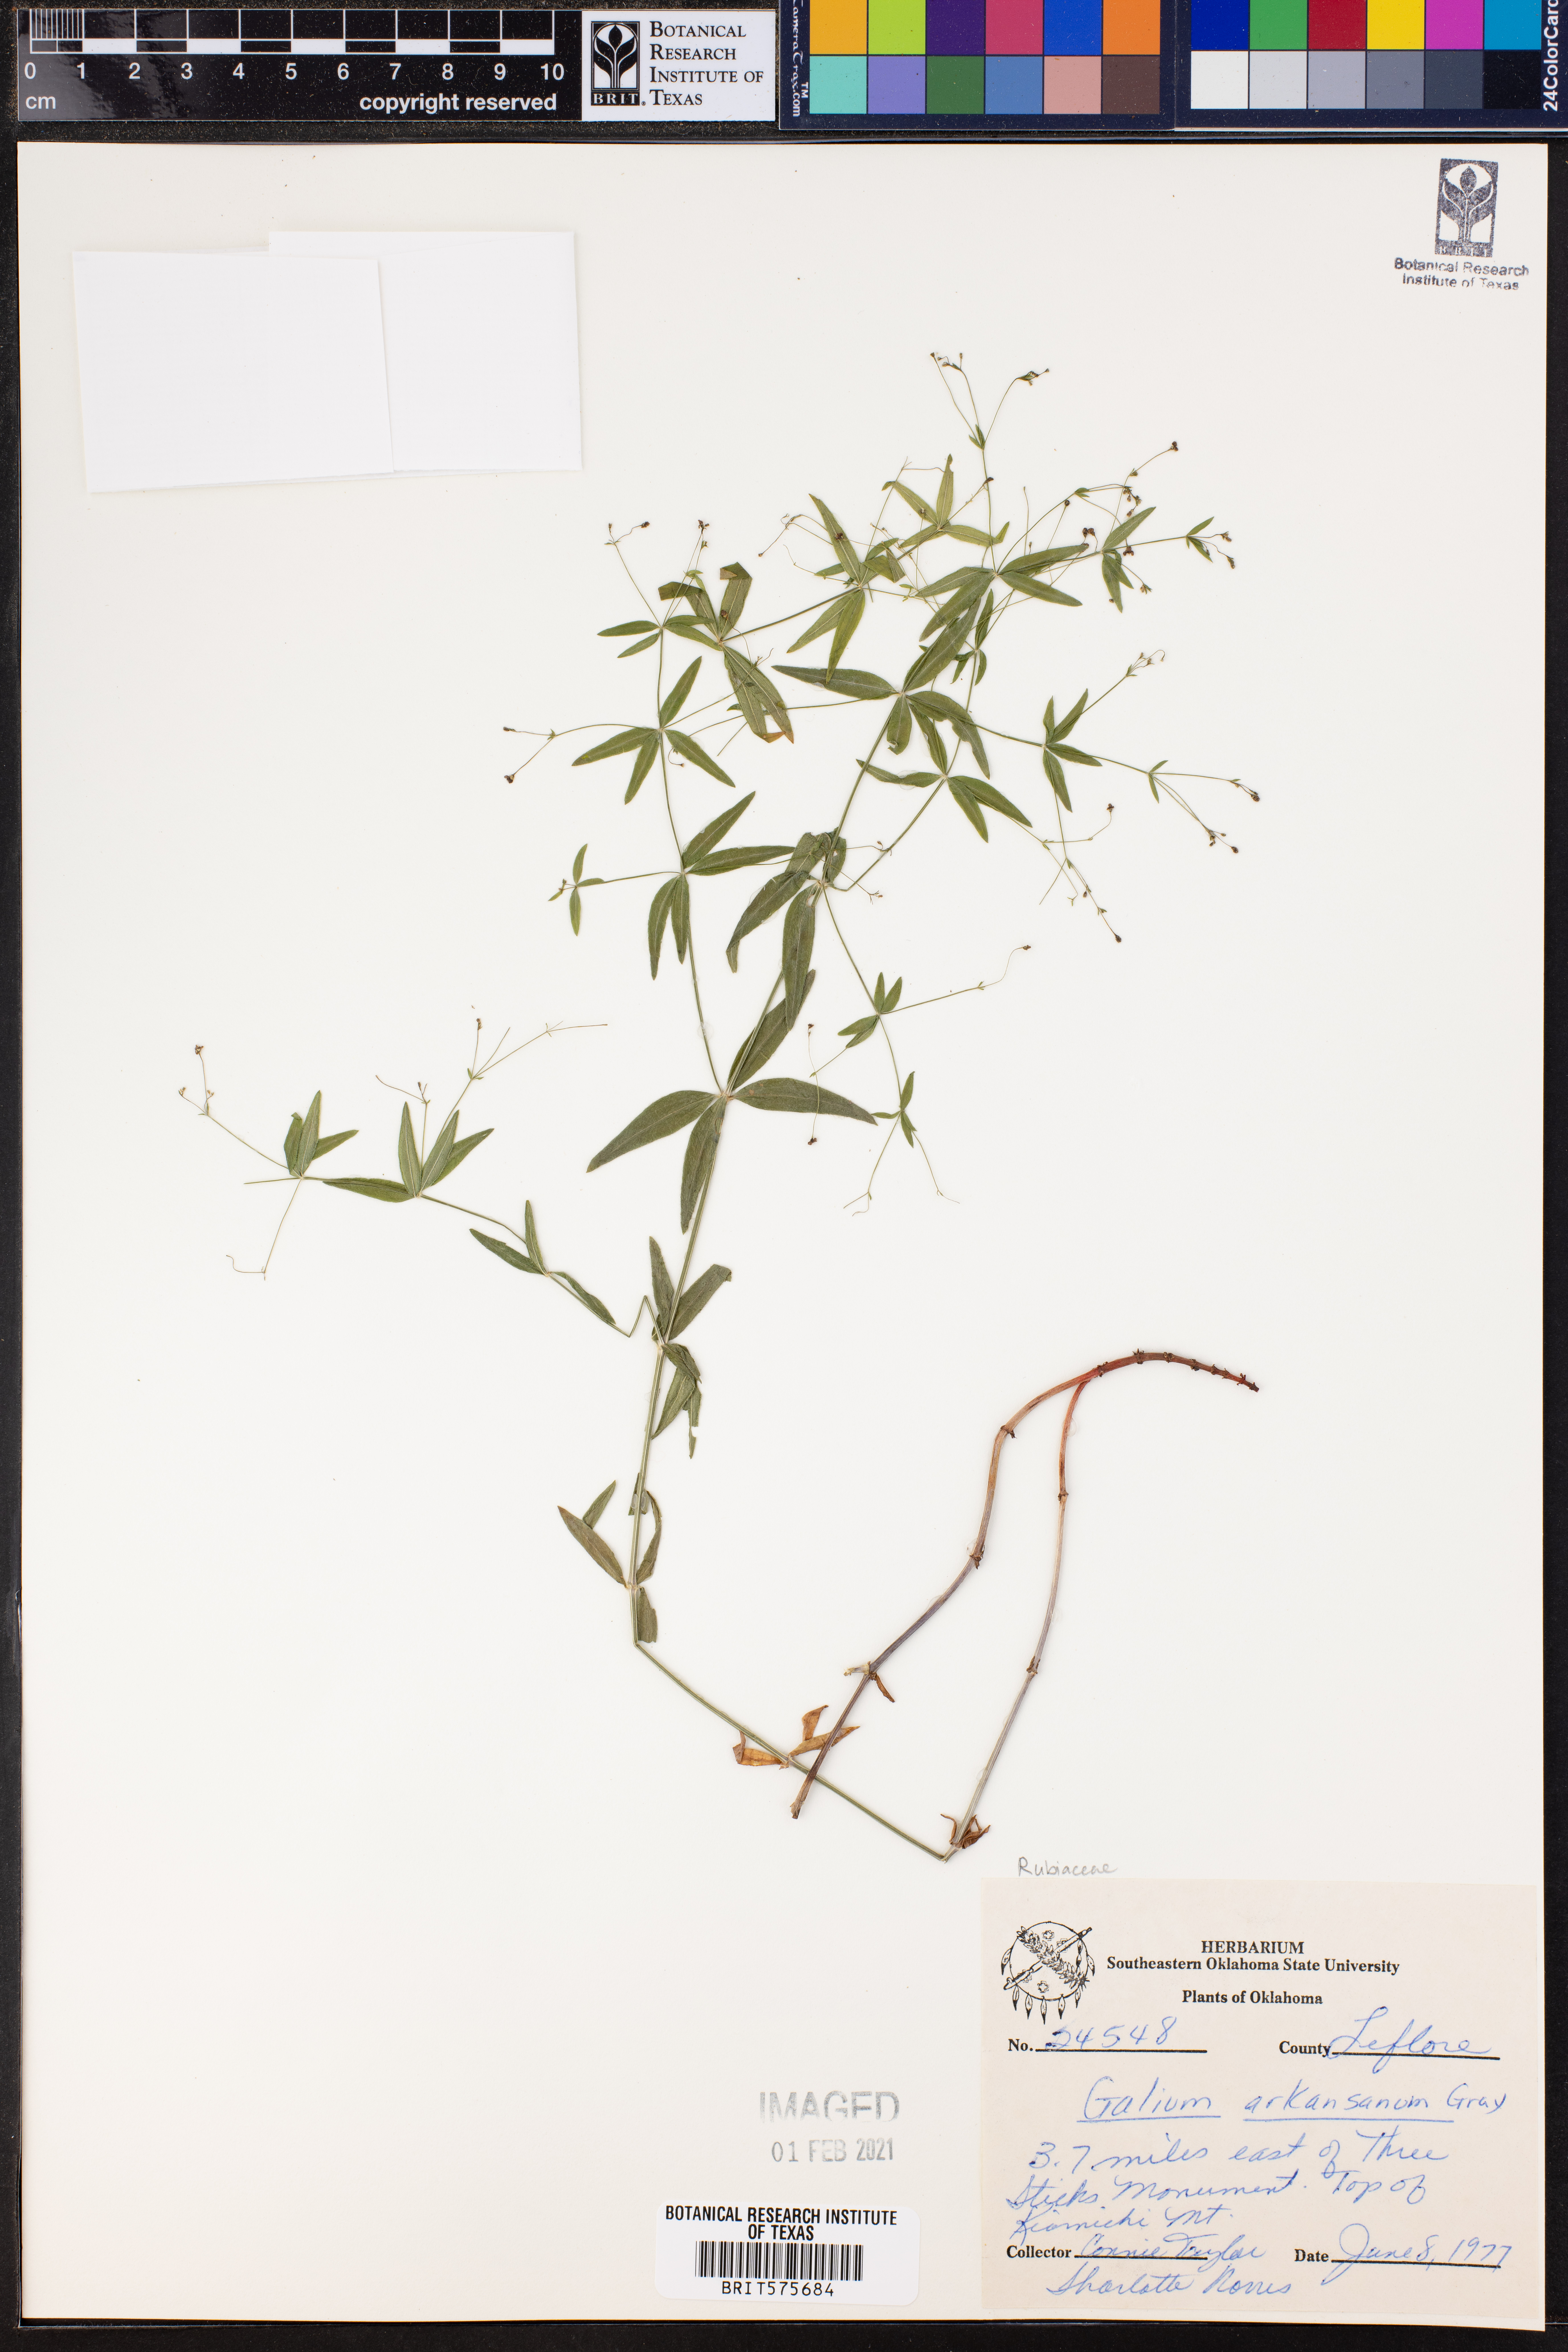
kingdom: Plantae
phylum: Tracheophyta
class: Magnoliopsida
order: Gentianales
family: Rubiaceae
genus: Galium
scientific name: Galium arkansanum
